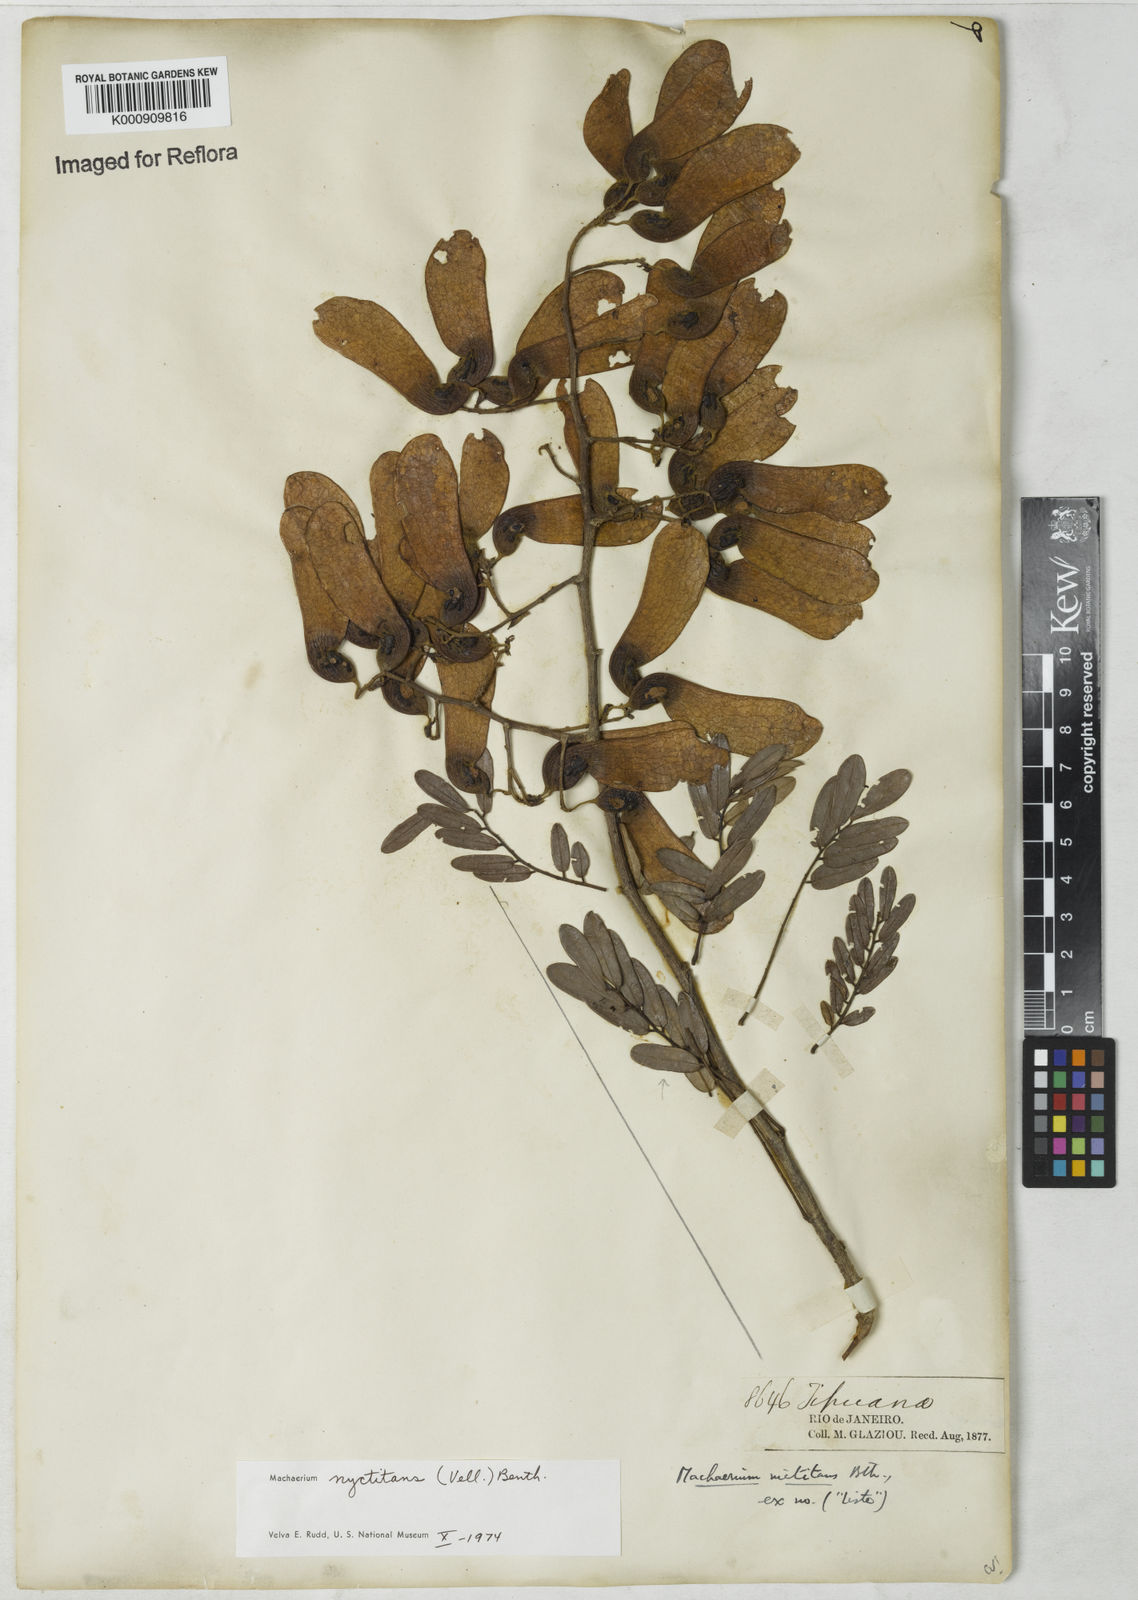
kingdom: Plantae
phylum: Tracheophyta
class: Magnoliopsida
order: Fabales
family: Fabaceae
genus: Machaerium
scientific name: Machaerium nyctitans
